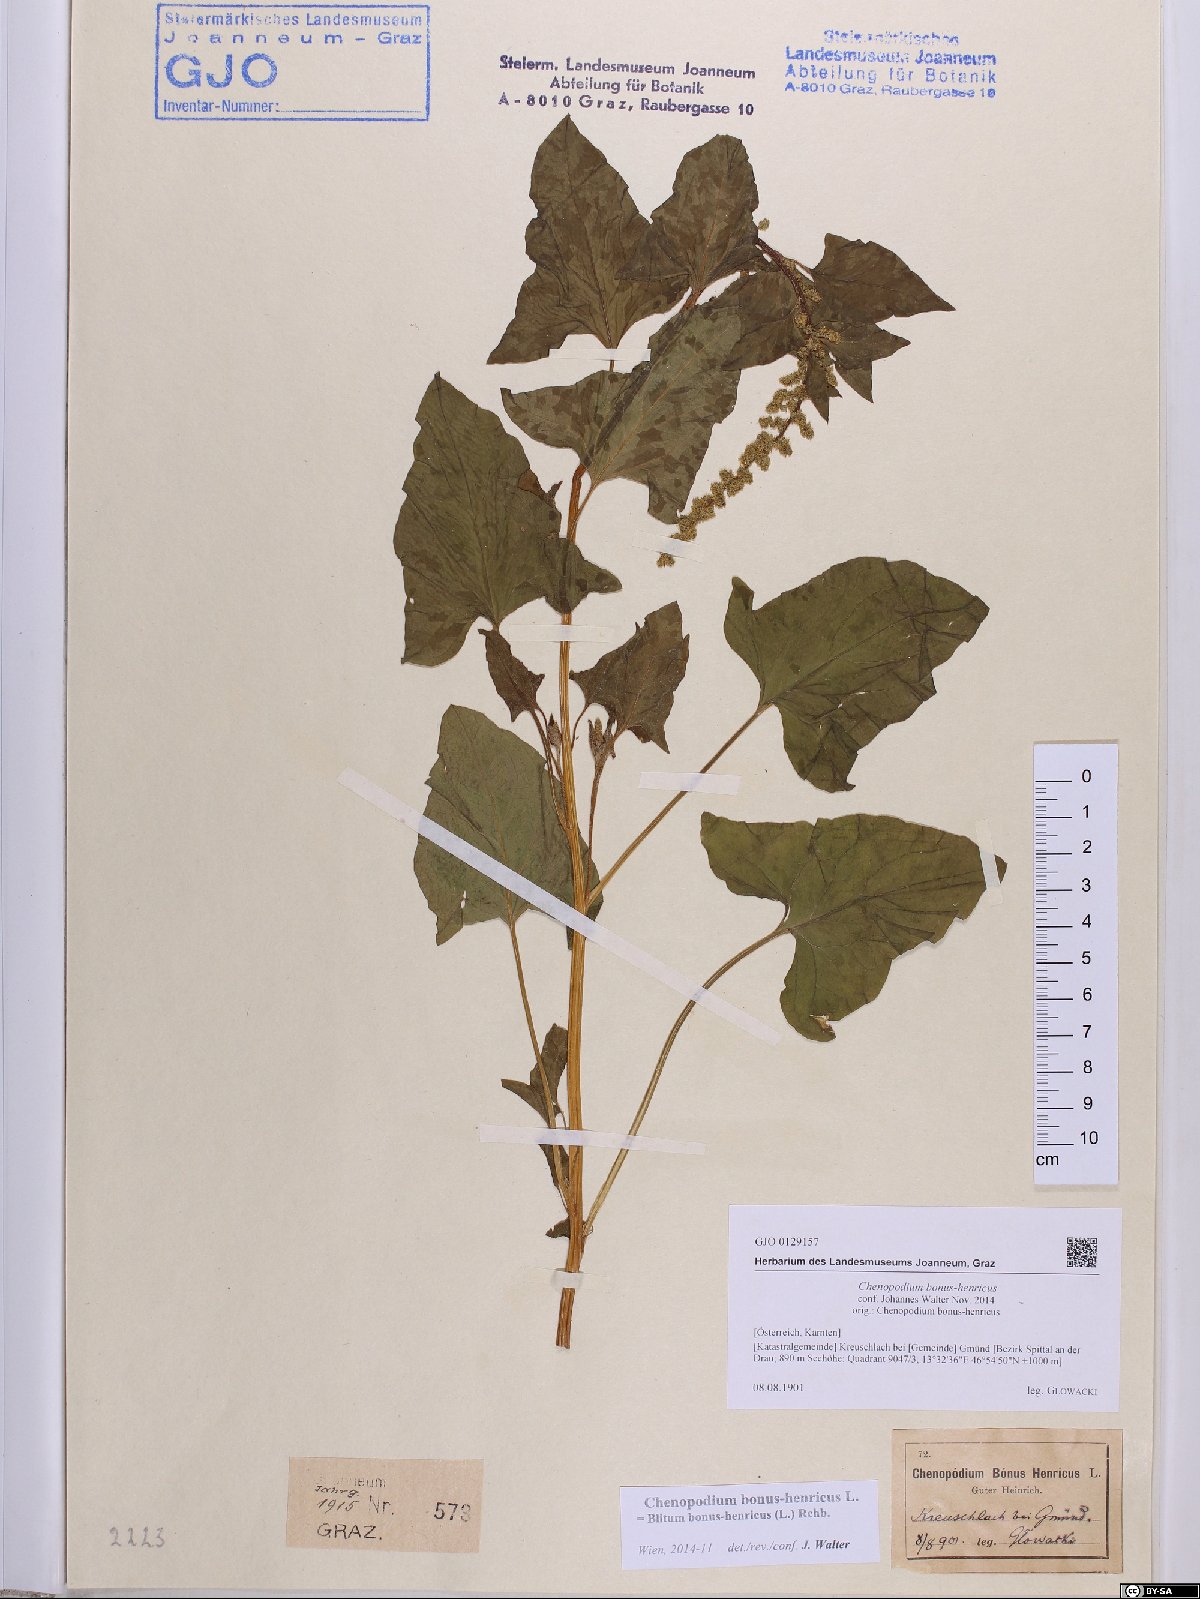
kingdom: Plantae
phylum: Tracheophyta
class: Magnoliopsida
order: Caryophyllales
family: Amaranthaceae
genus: Blitum
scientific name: Blitum bonus-henricus
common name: Good king henry
